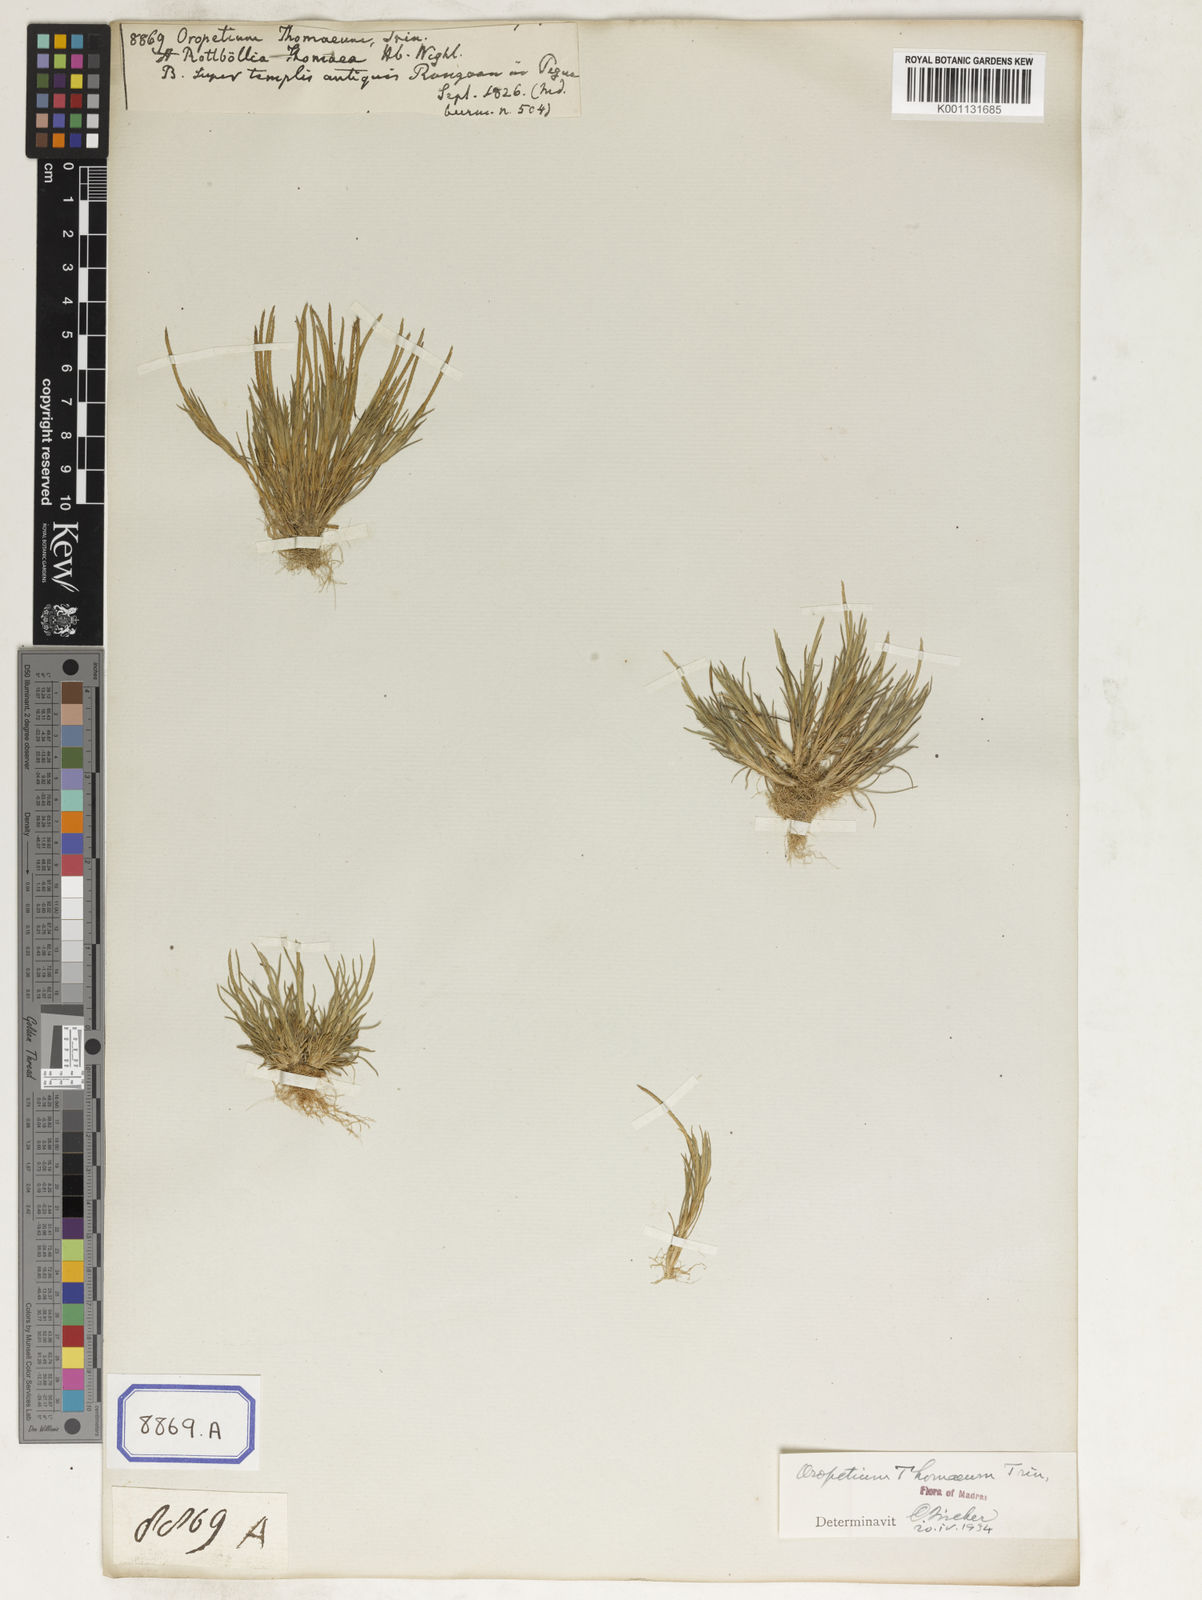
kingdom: Plantae
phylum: Tracheophyta
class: Liliopsida
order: Poales
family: Poaceae
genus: Oropetium
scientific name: Oropetium thomaeum
